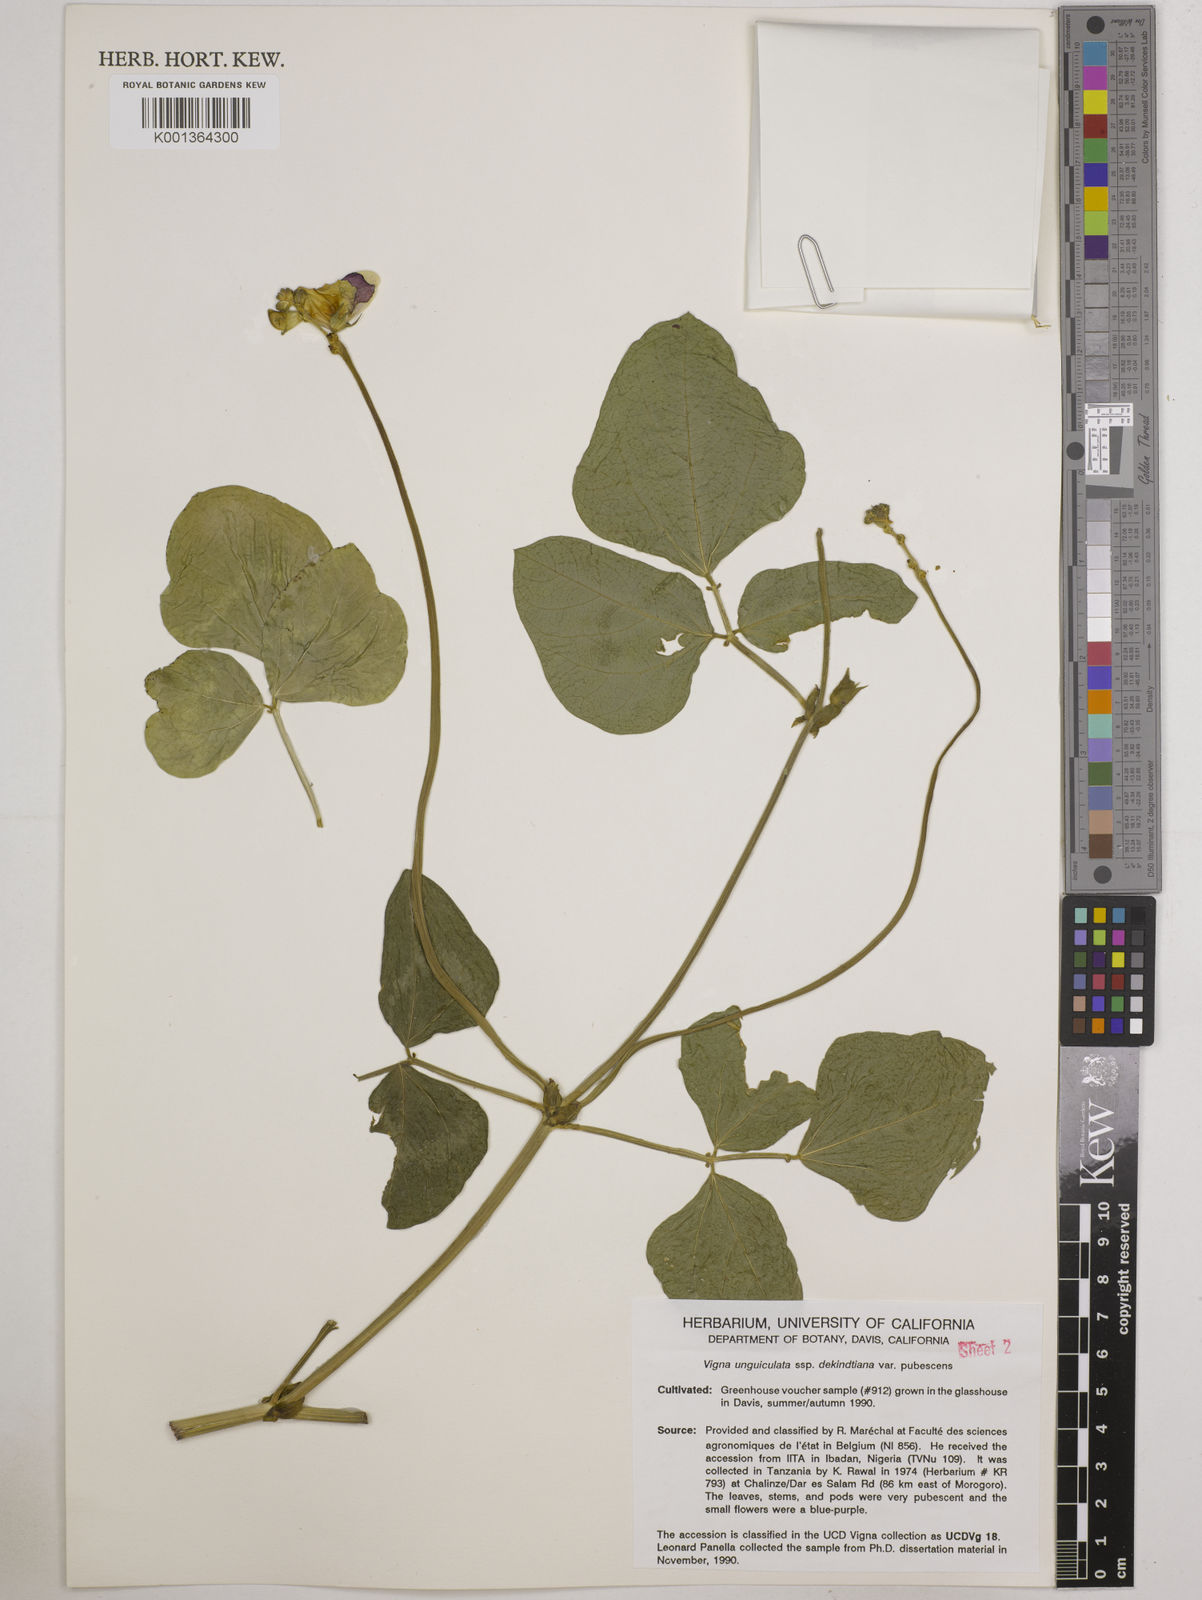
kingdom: Plantae
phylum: Tracheophyta
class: Magnoliopsida
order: Fabales
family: Fabaceae
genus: Vigna
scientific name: Vigna
